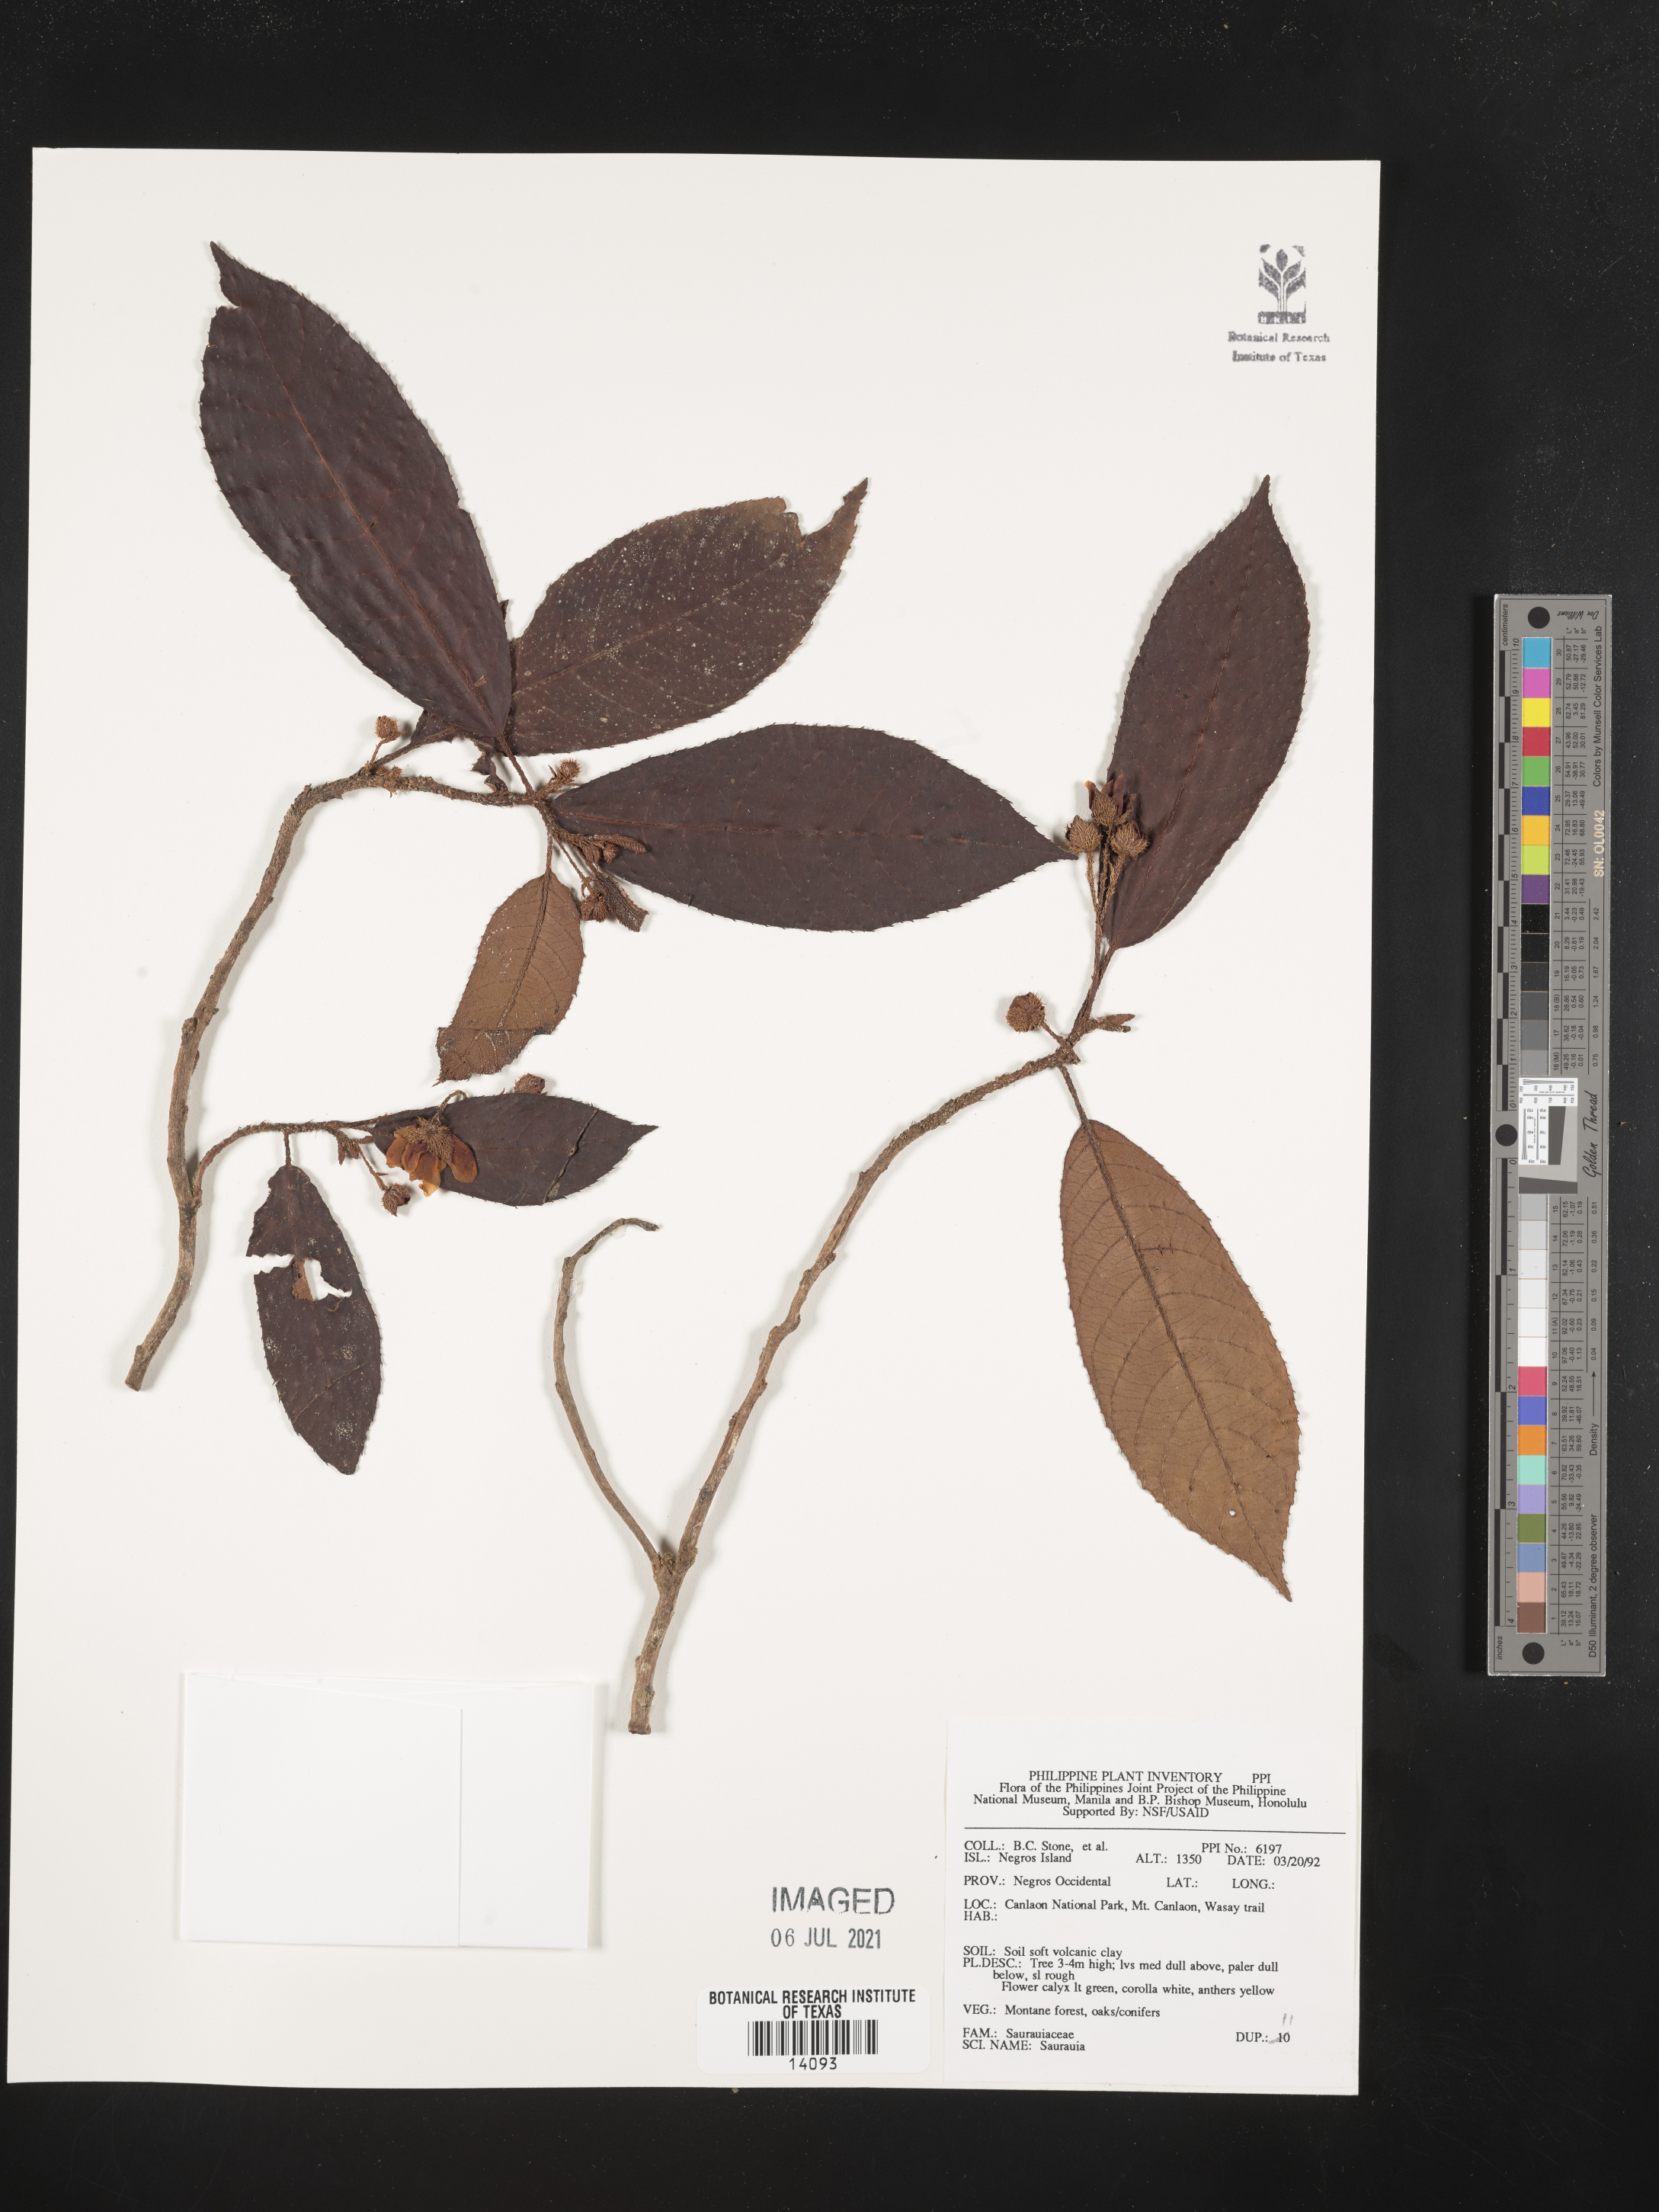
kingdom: Plantae
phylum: Tracheophyta
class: Magnoliopsida
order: Ericales
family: Actinidiaceae
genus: Saurauia
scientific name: Saurauia
